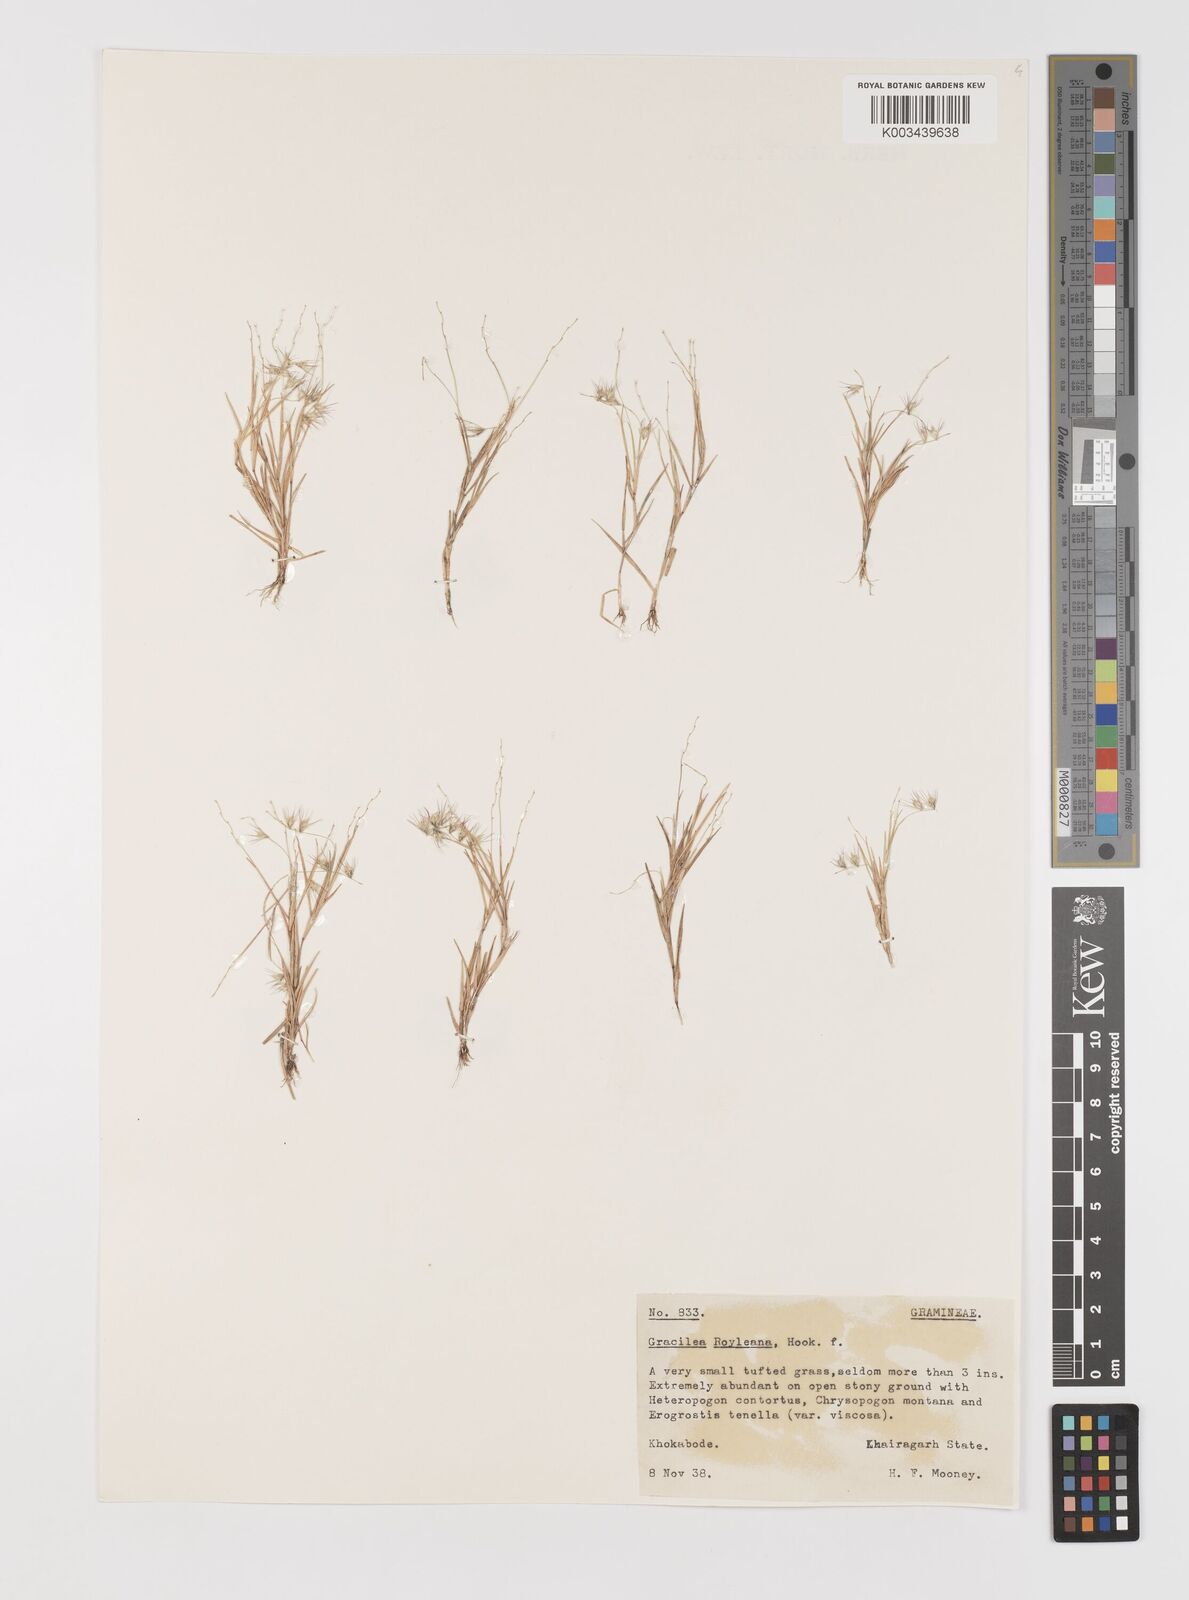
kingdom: Plantae
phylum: Tracheophyta
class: Liliopsida
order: Poales
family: Poaceae
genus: Melanocenchris
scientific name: Melanocenchris jacquemontii
